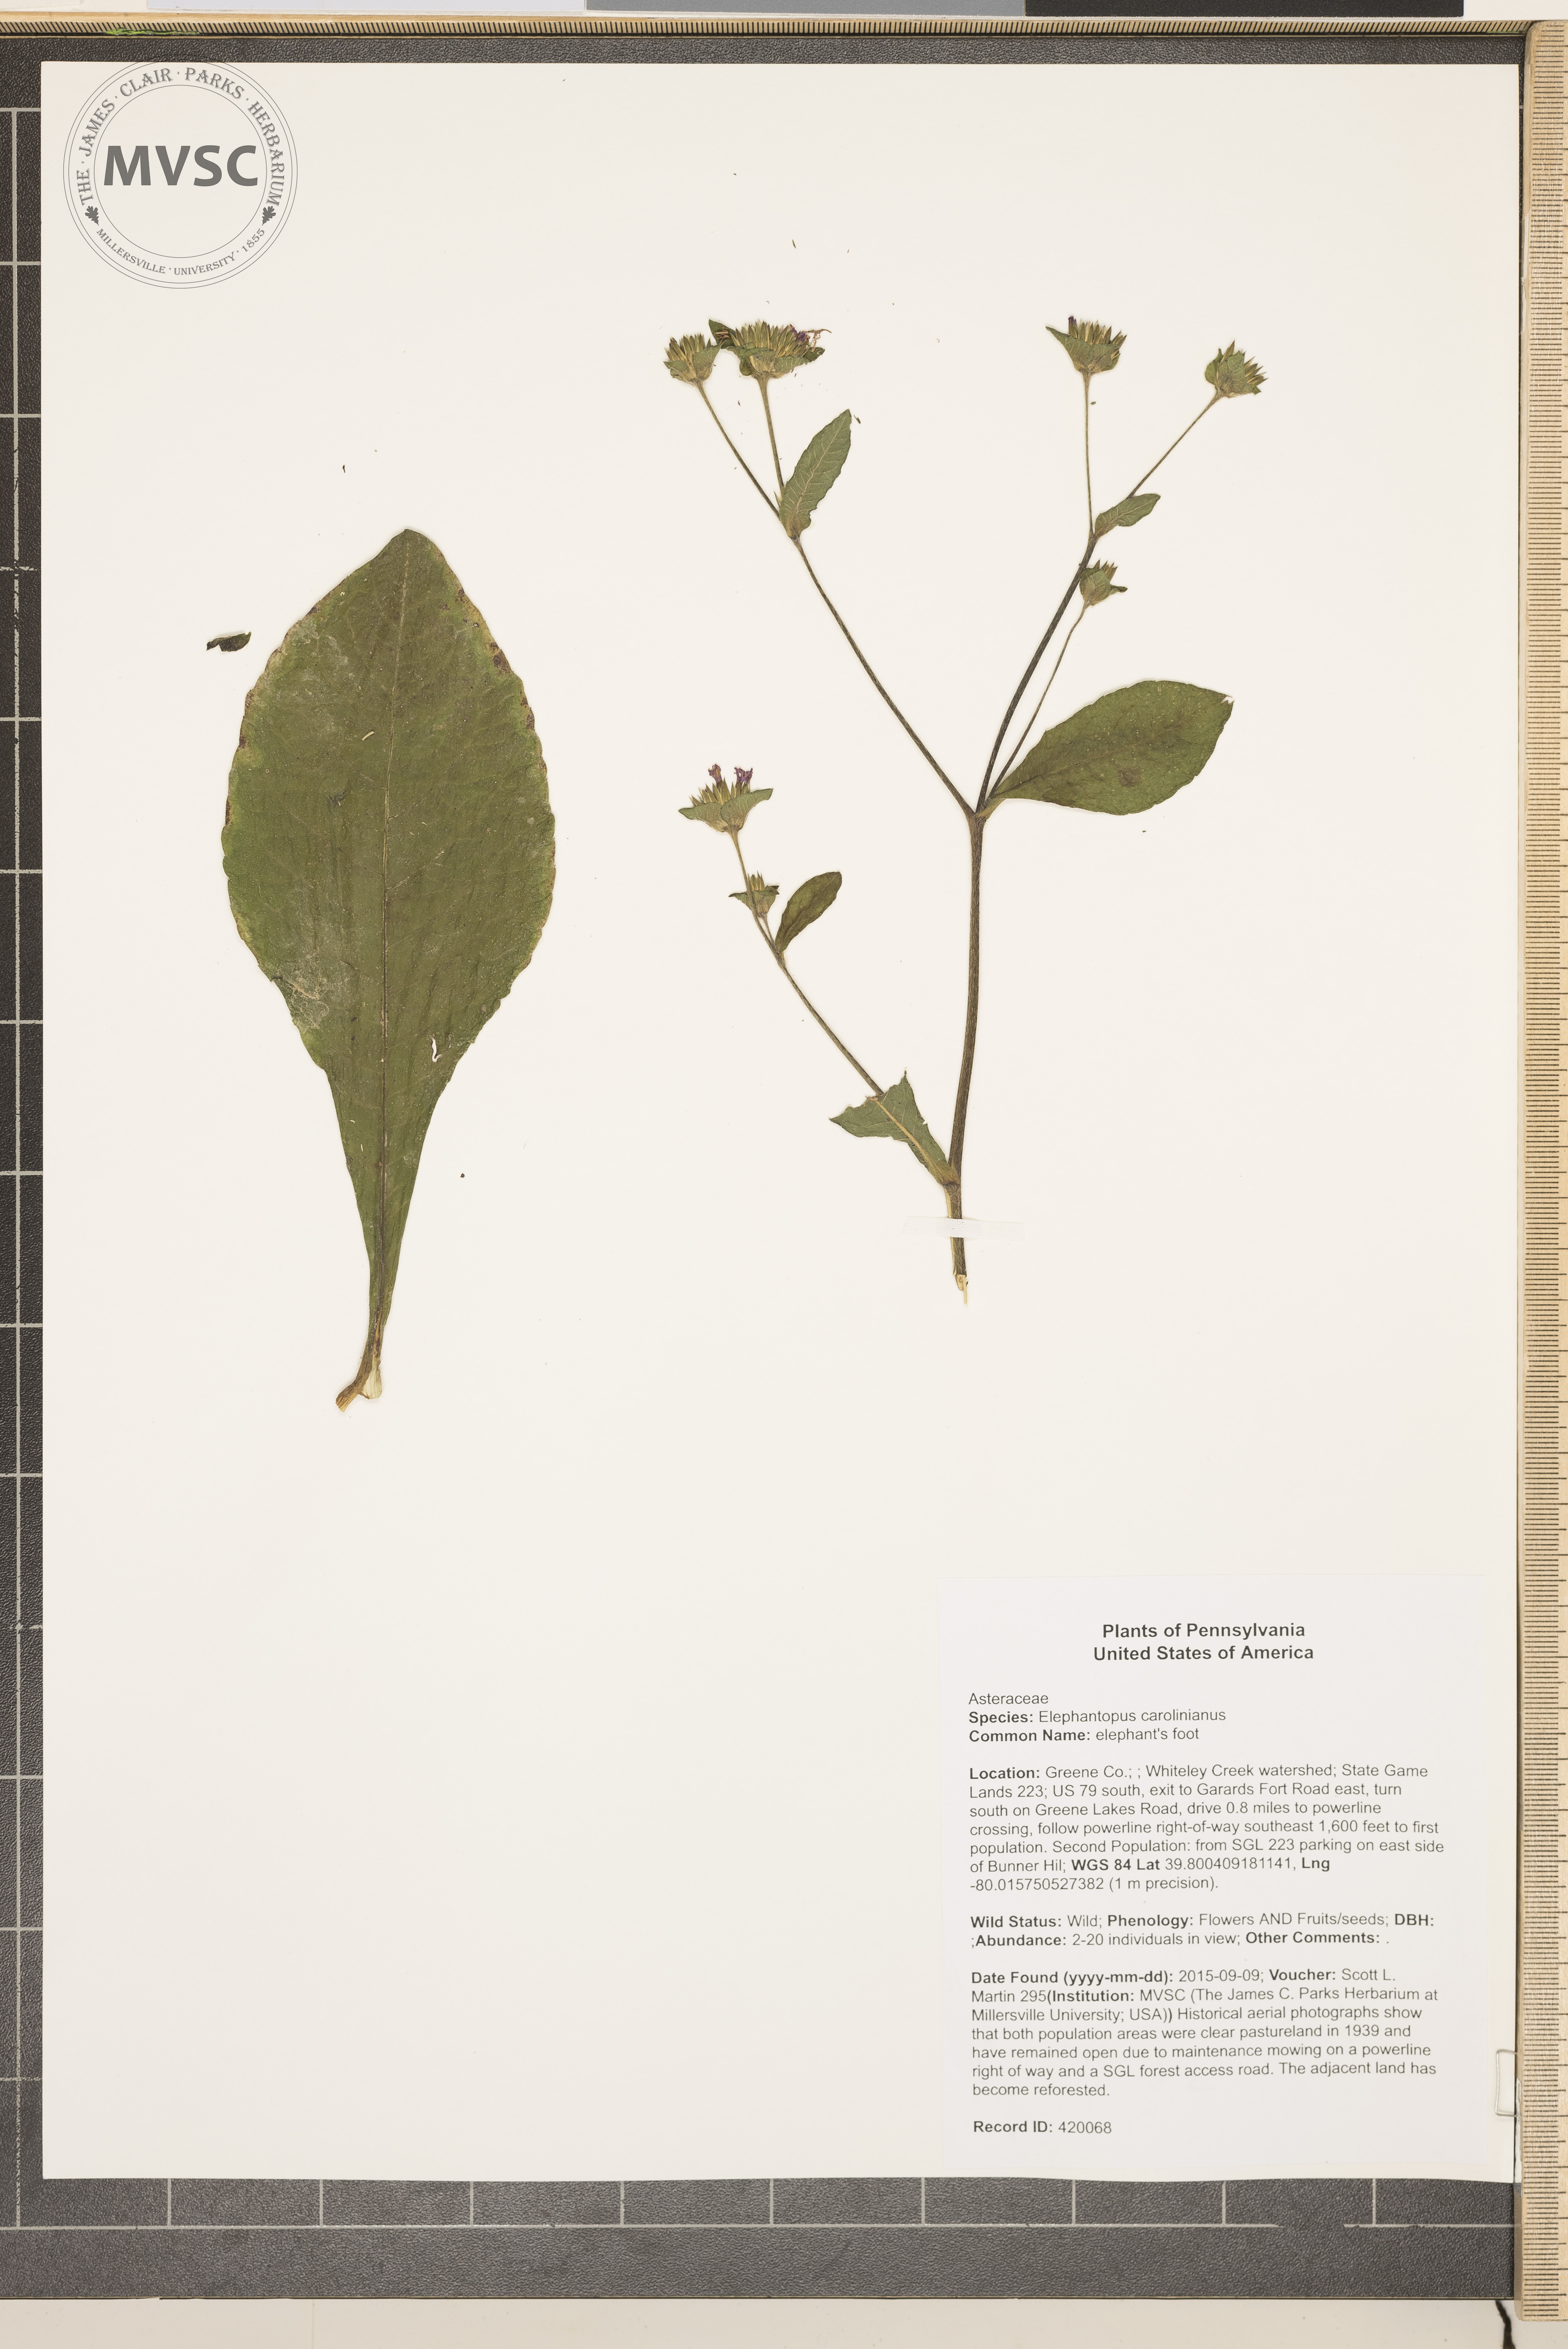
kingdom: Plantae
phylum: Tracheophyta
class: Magnoliopsida
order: Asterales
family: Asteraceae
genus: Elephantopus
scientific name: Elephantopus carolinianus
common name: elephant's foot
